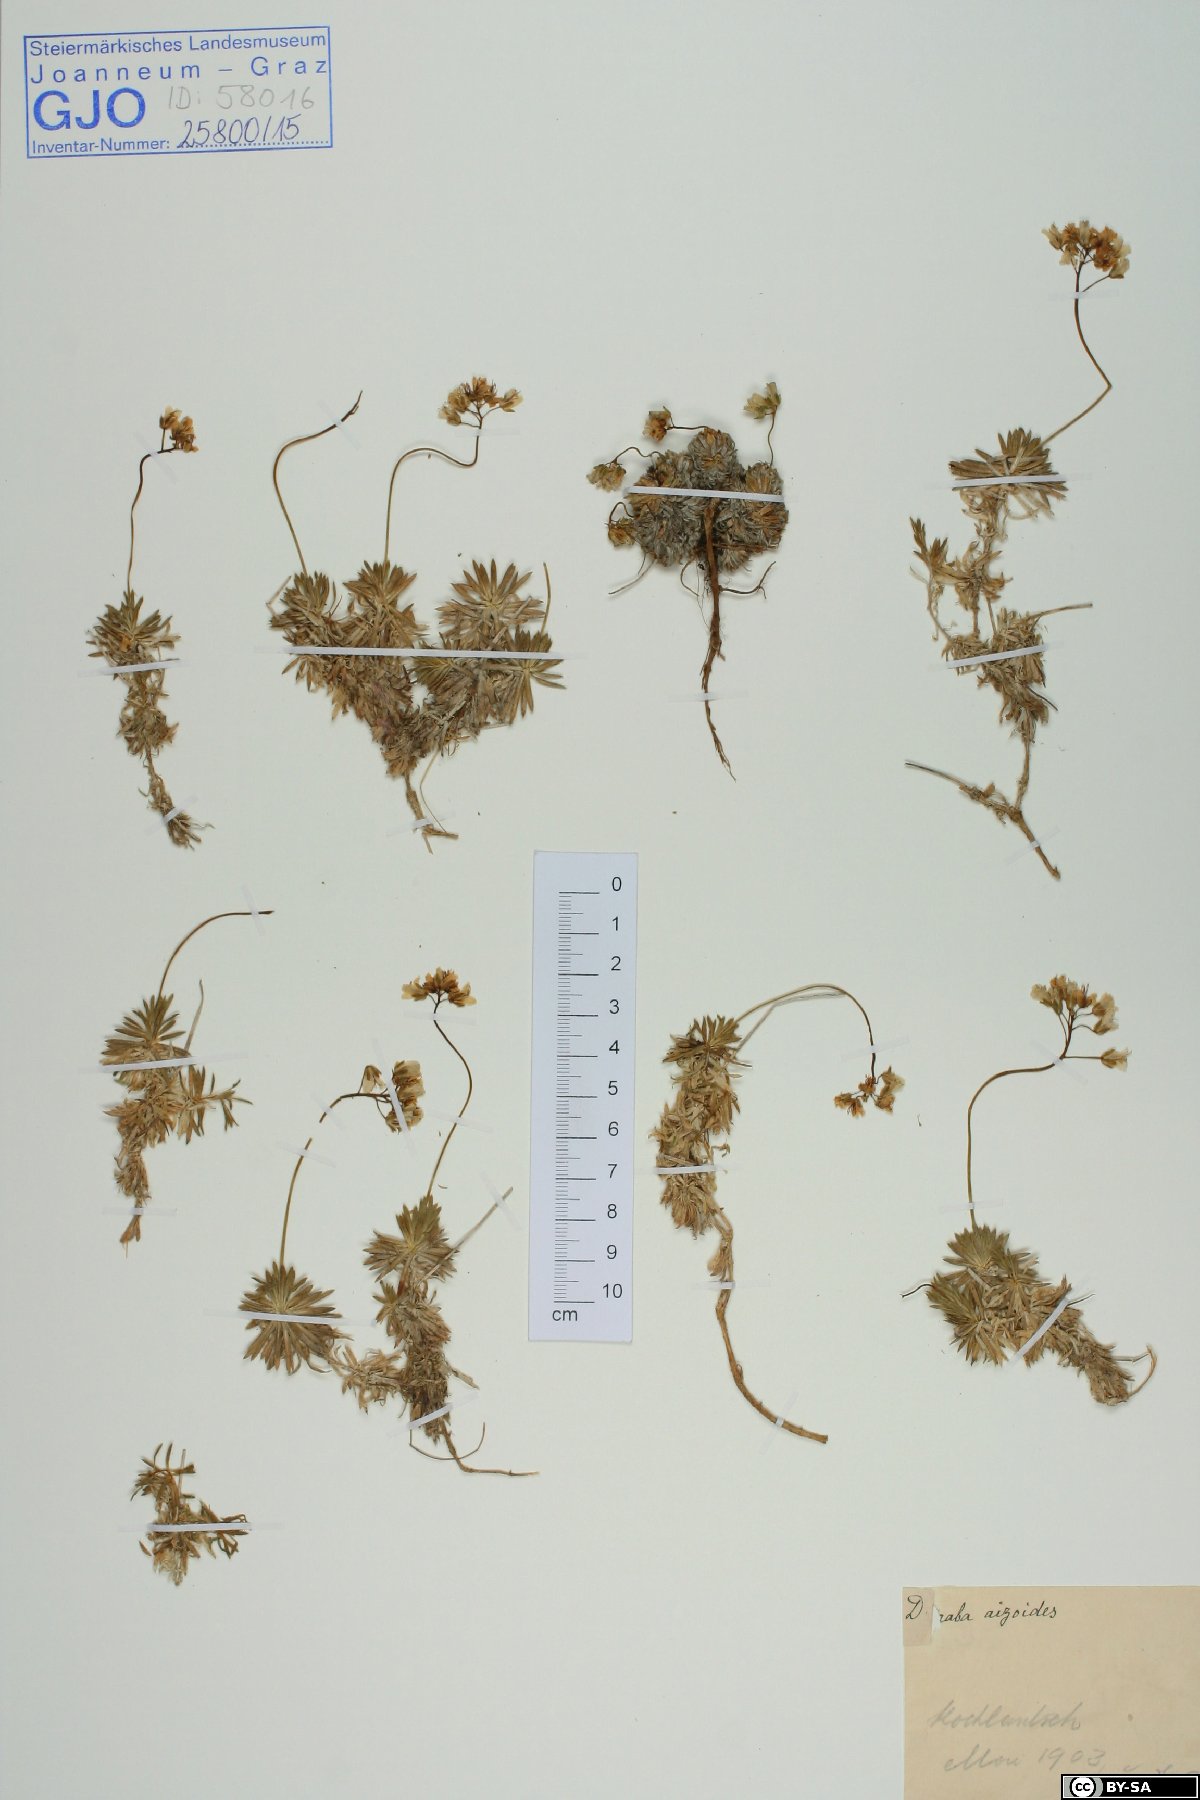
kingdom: Plantae
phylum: Tracheophyta
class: Magnoliopsida
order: Brassicales
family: Brassicaceae
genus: Draba
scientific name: Draba aizoides
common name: Yellow whitlowgrass
